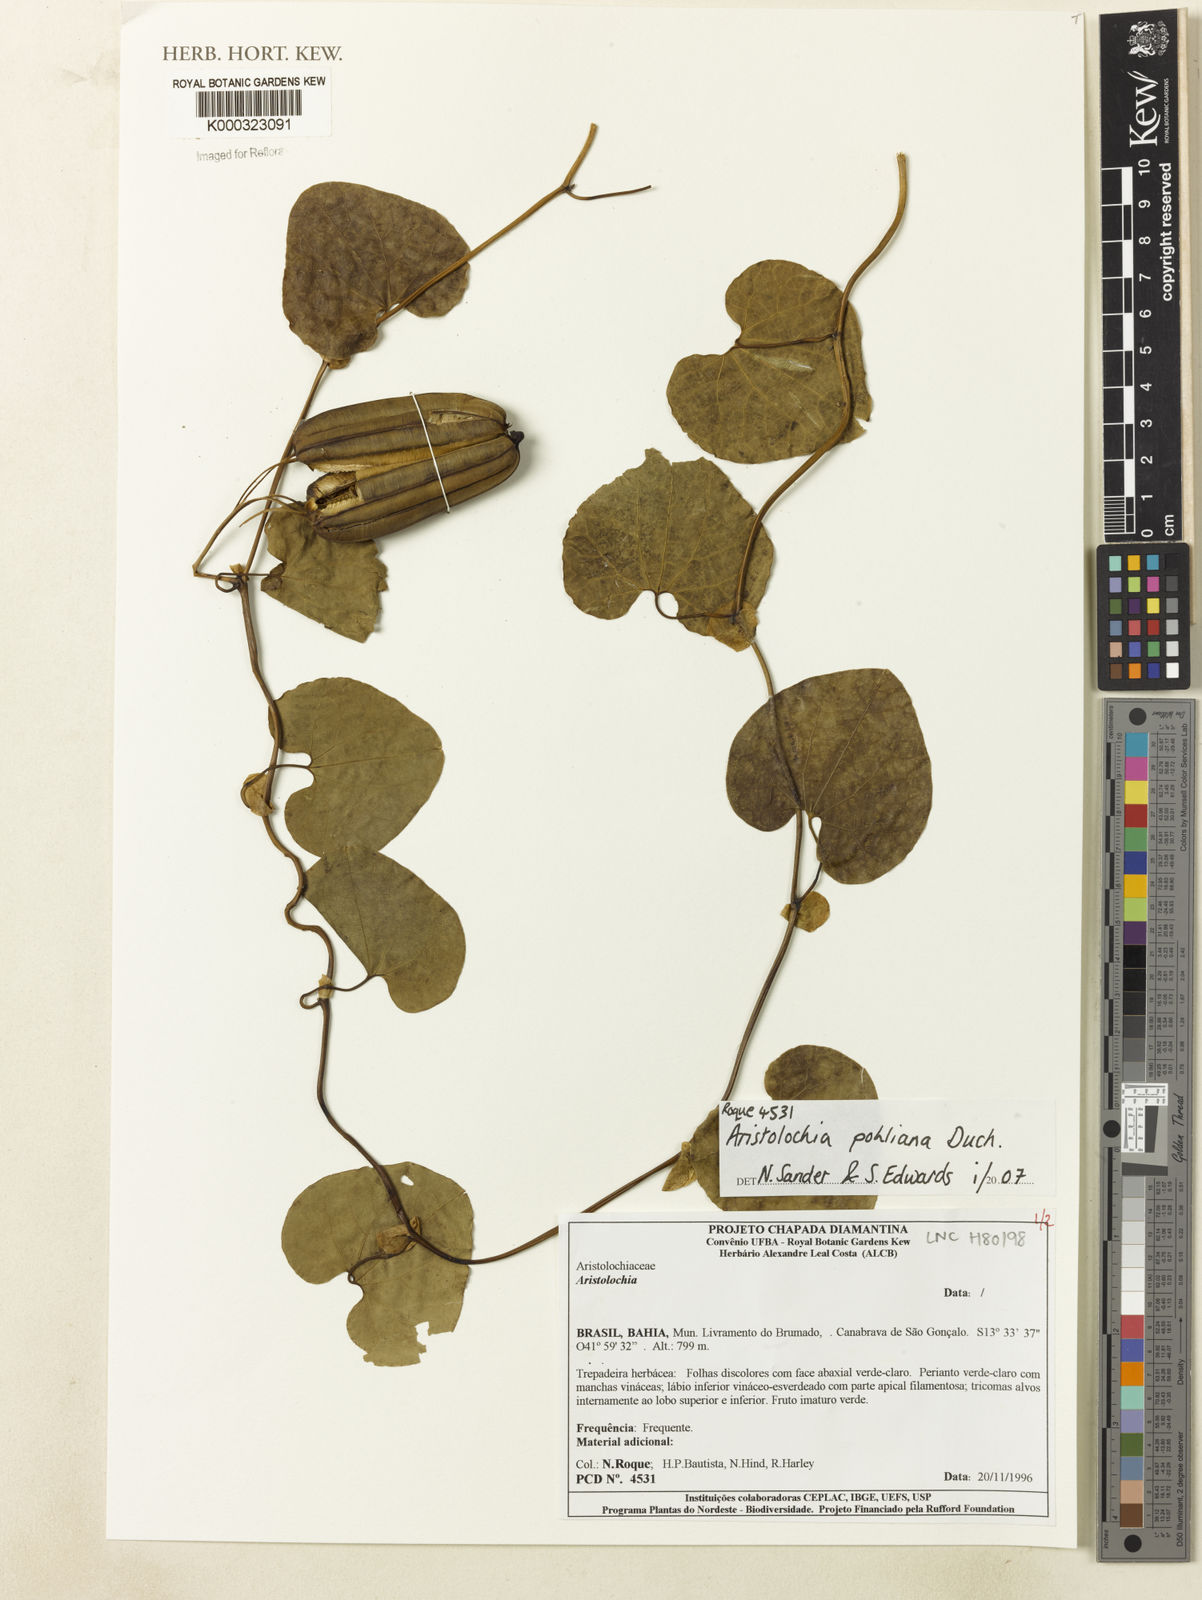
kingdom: Plantae
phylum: Tracheophyta
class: Magnoliopsida
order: Piperales
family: Aristolochiaceae
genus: Aristolochia
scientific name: Aristolochia pohliana
